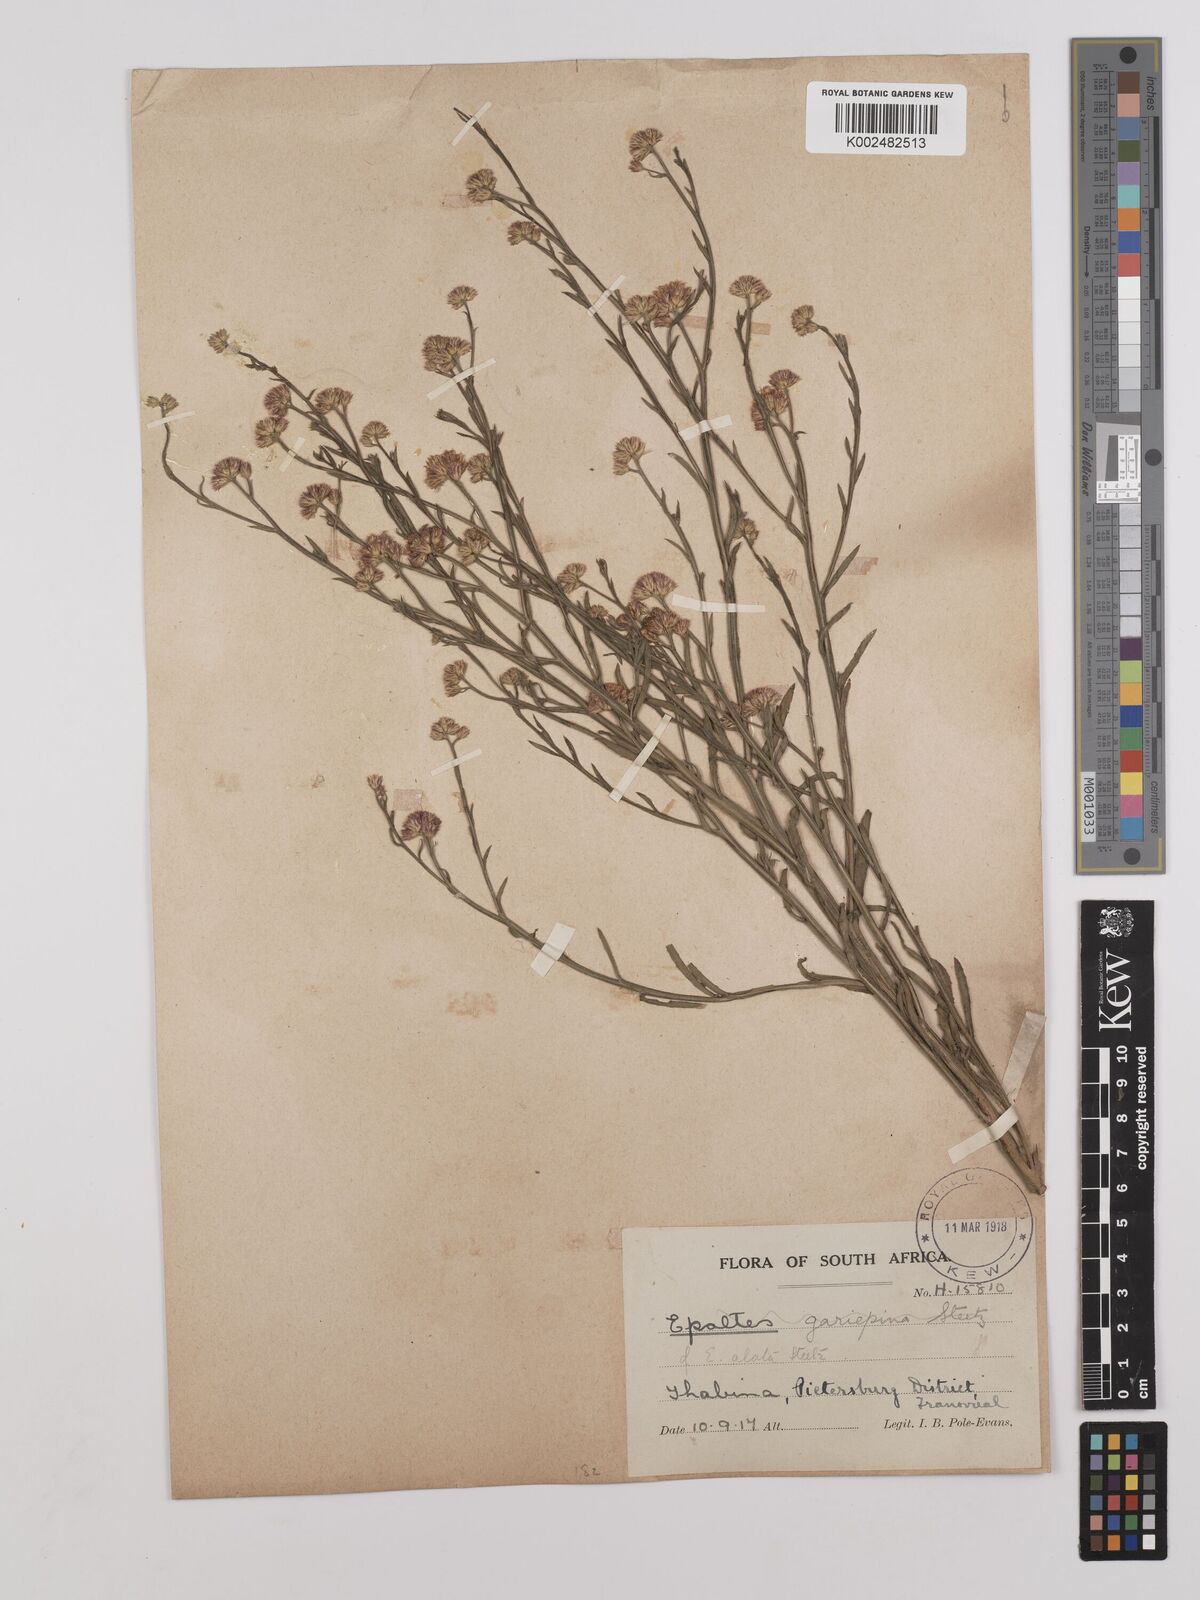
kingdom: Plantae
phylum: Tracheophyta
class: Magnoliopsida
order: Asterales
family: Asteraceae
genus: Litogyne
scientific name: Litogyne gariepina
